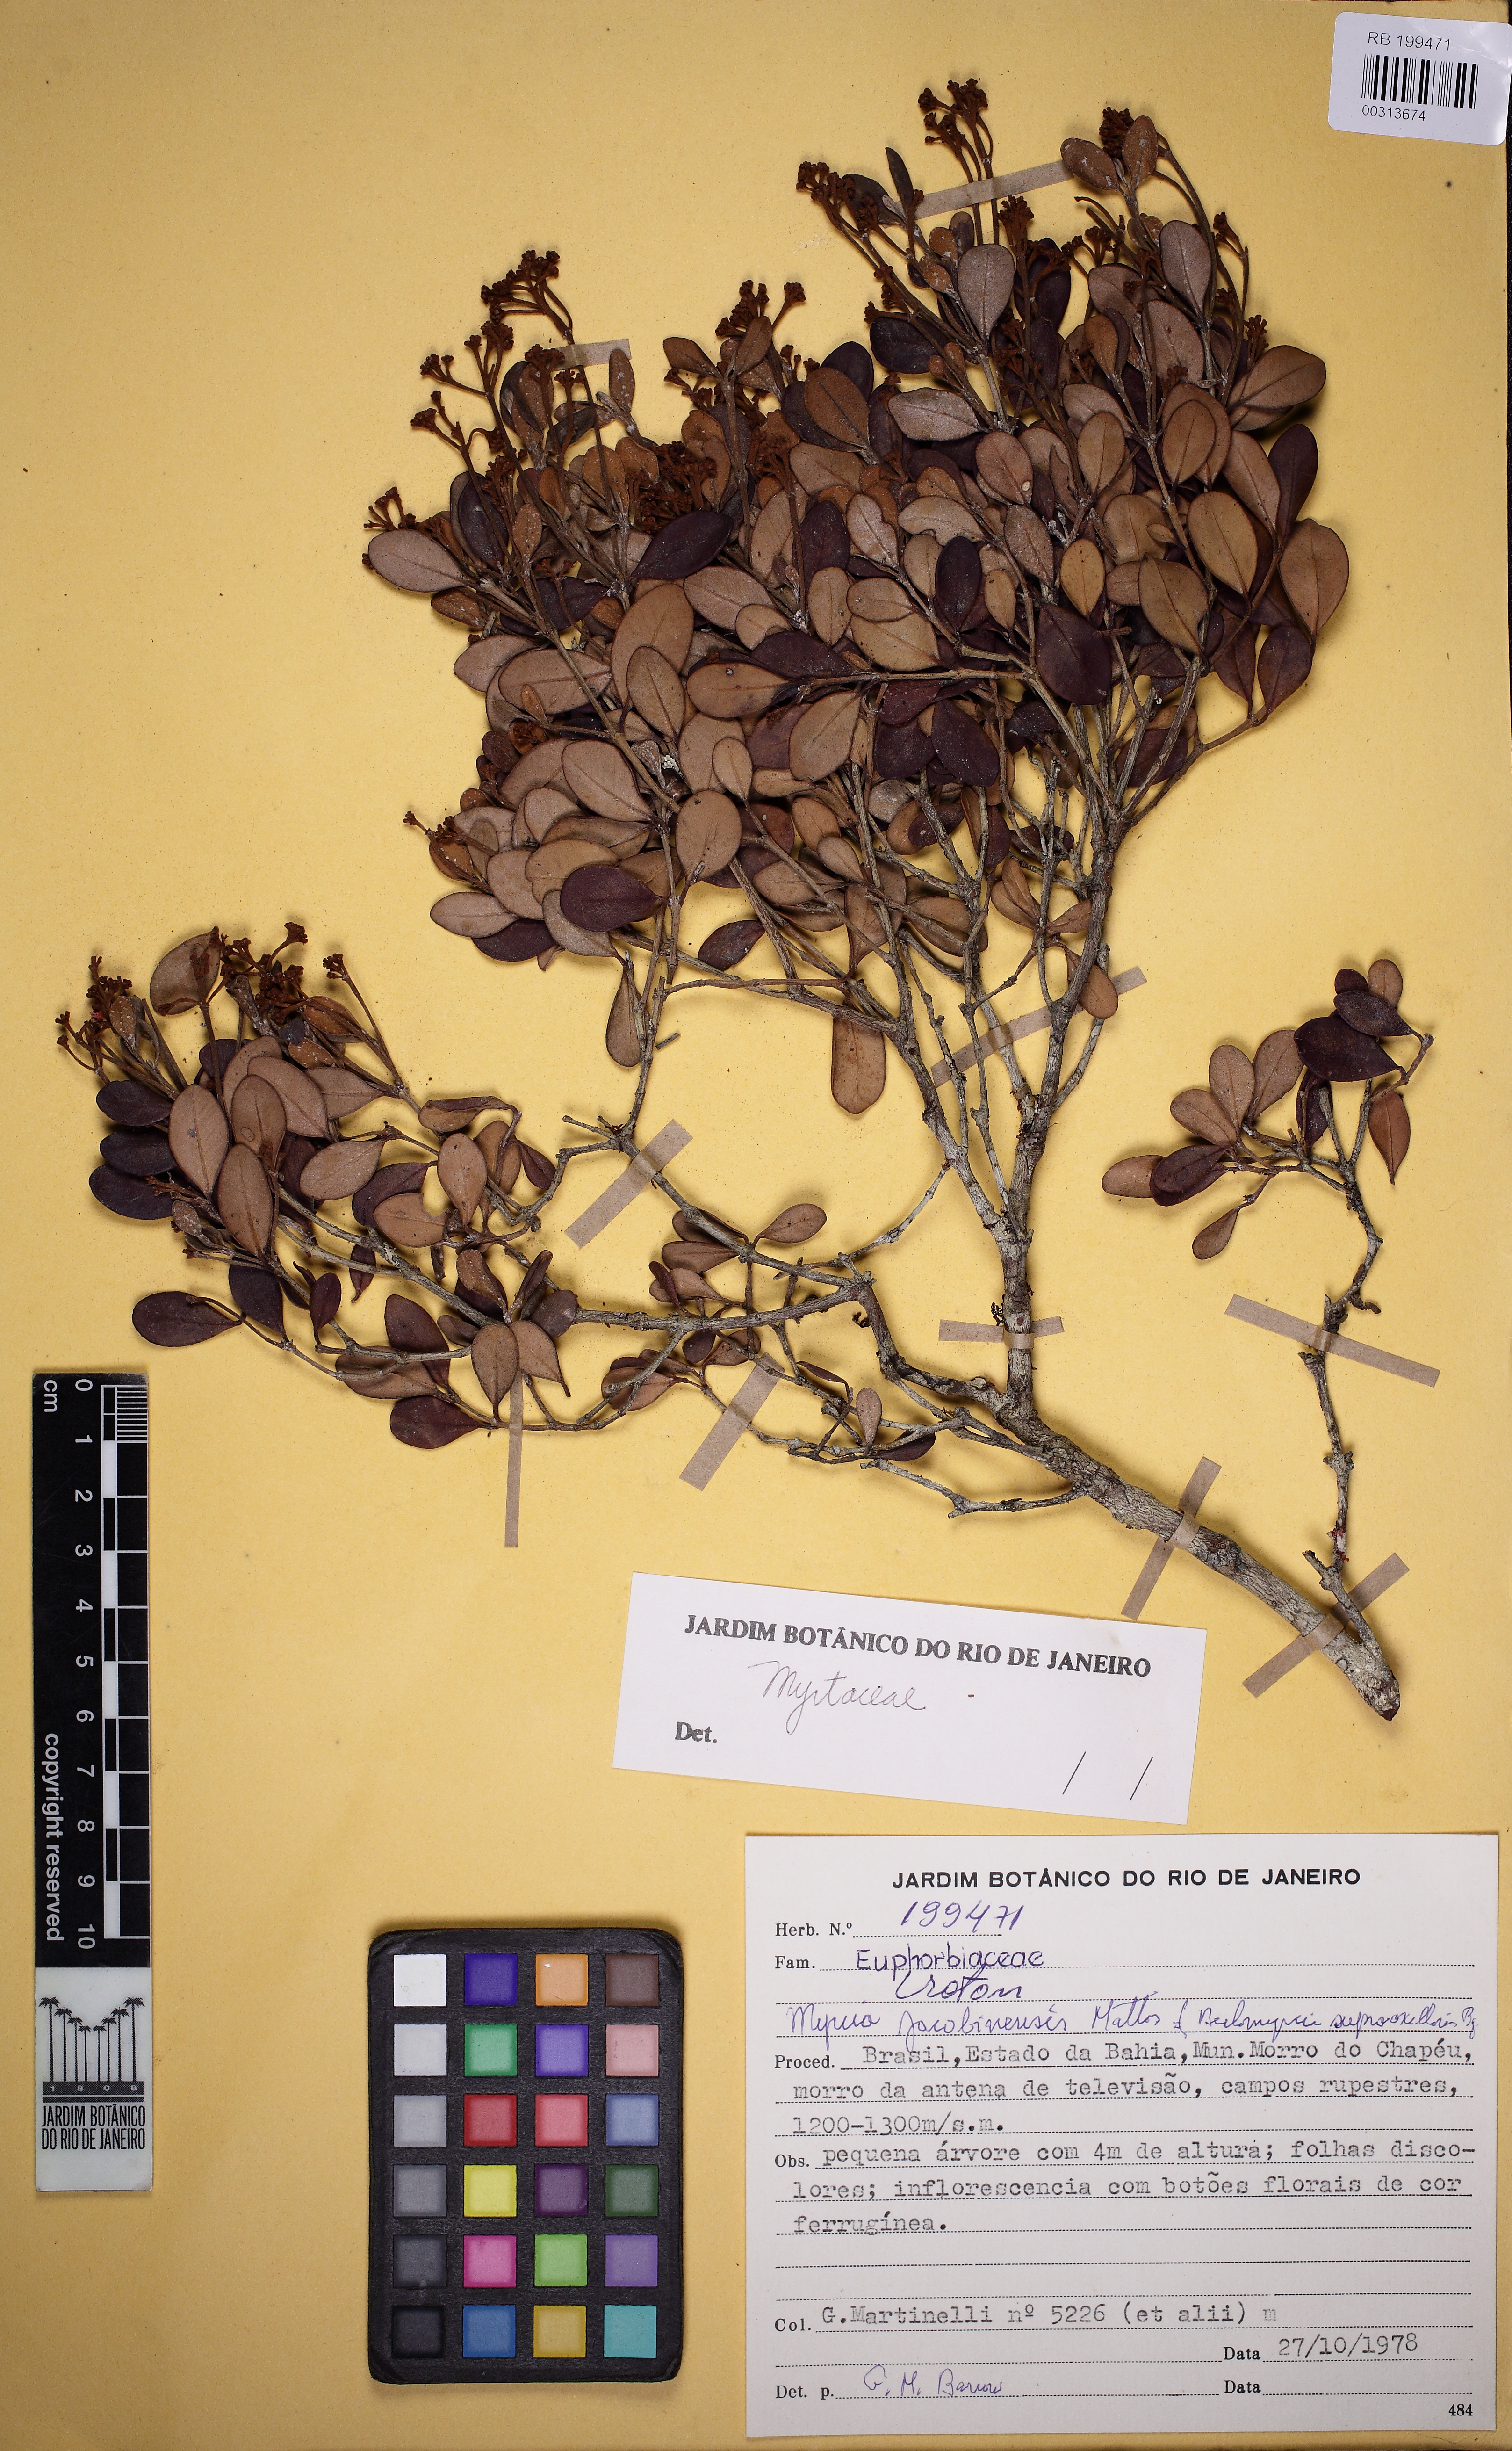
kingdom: Plantae
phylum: Tracheophyta
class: Magnoliopsida
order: Myrtales
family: Myrtaceae
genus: Myrcia
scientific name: Myrcia densa
